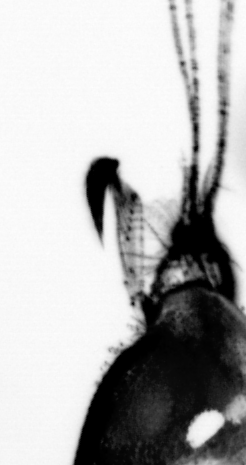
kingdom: Animalia
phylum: Chordata
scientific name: Chordata
